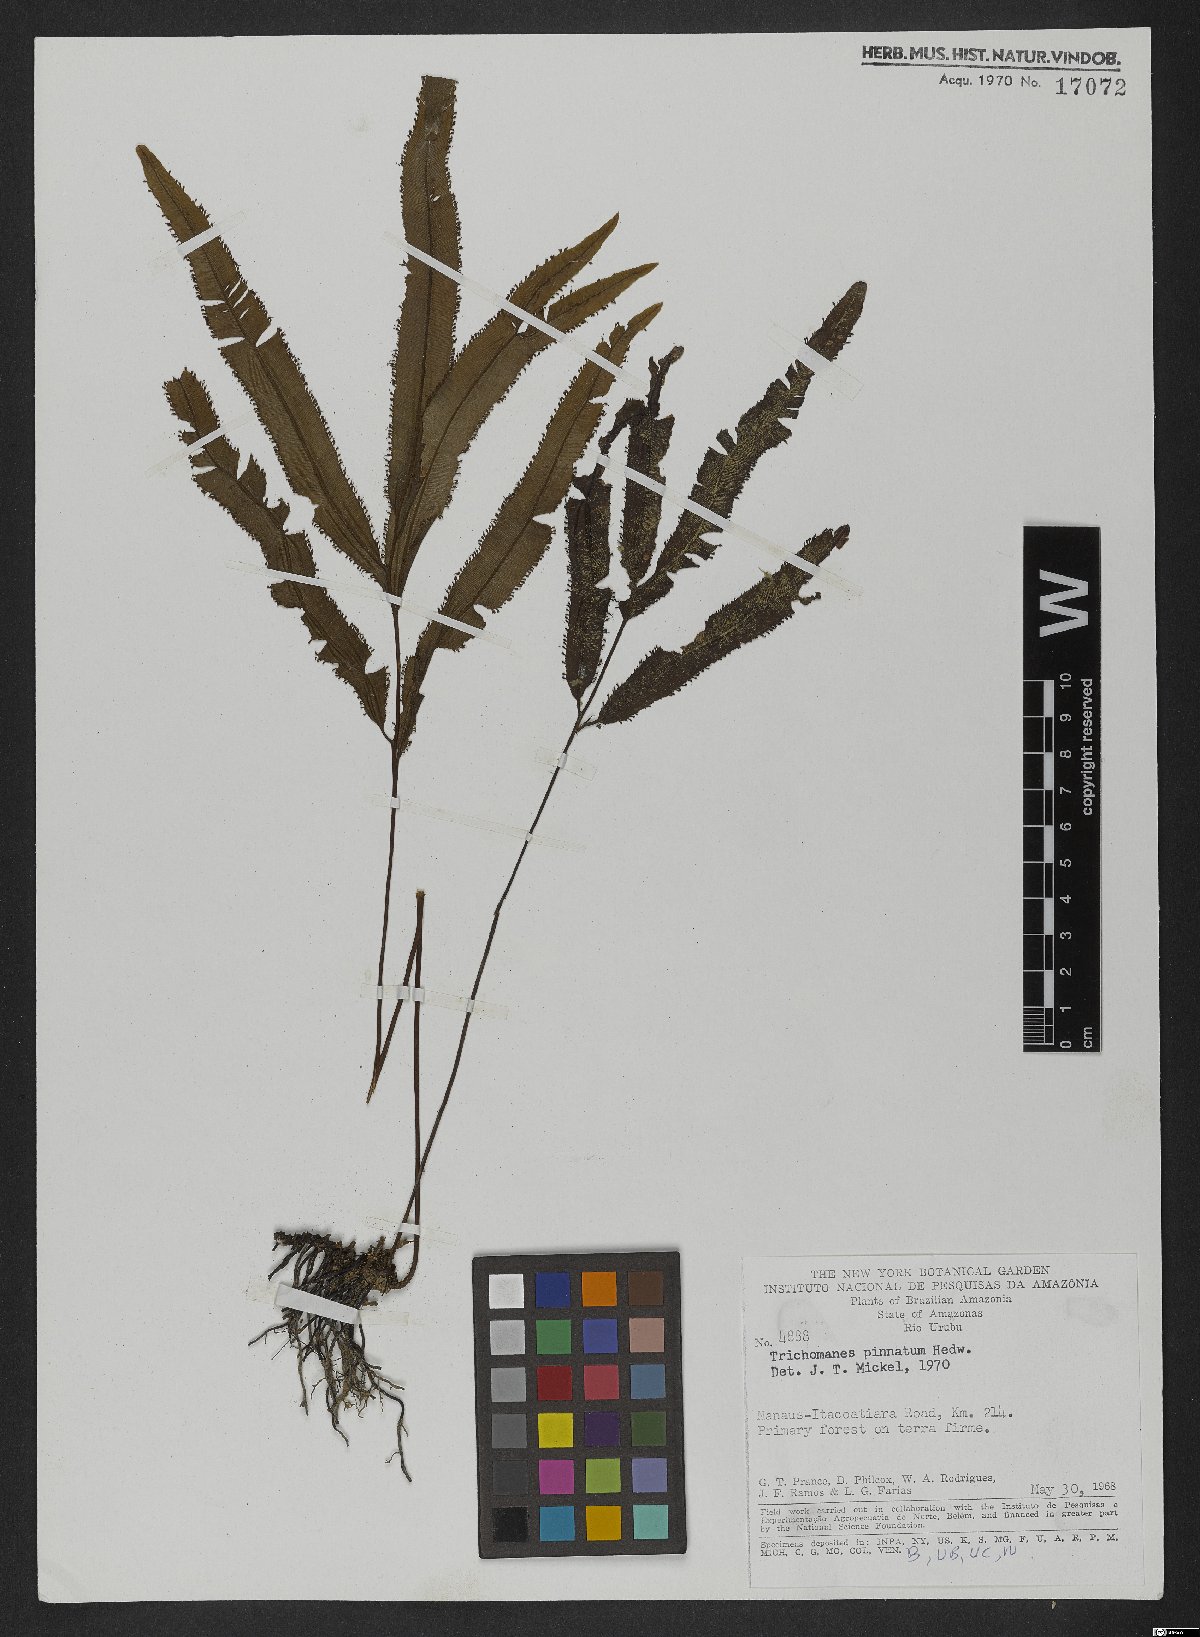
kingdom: Plantae
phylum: Tracheophyta
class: Polypodiopsida
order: Hymenophyllales
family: Hymenophyllaceae
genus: Trichomanes
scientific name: Trichomanes pinnatum
